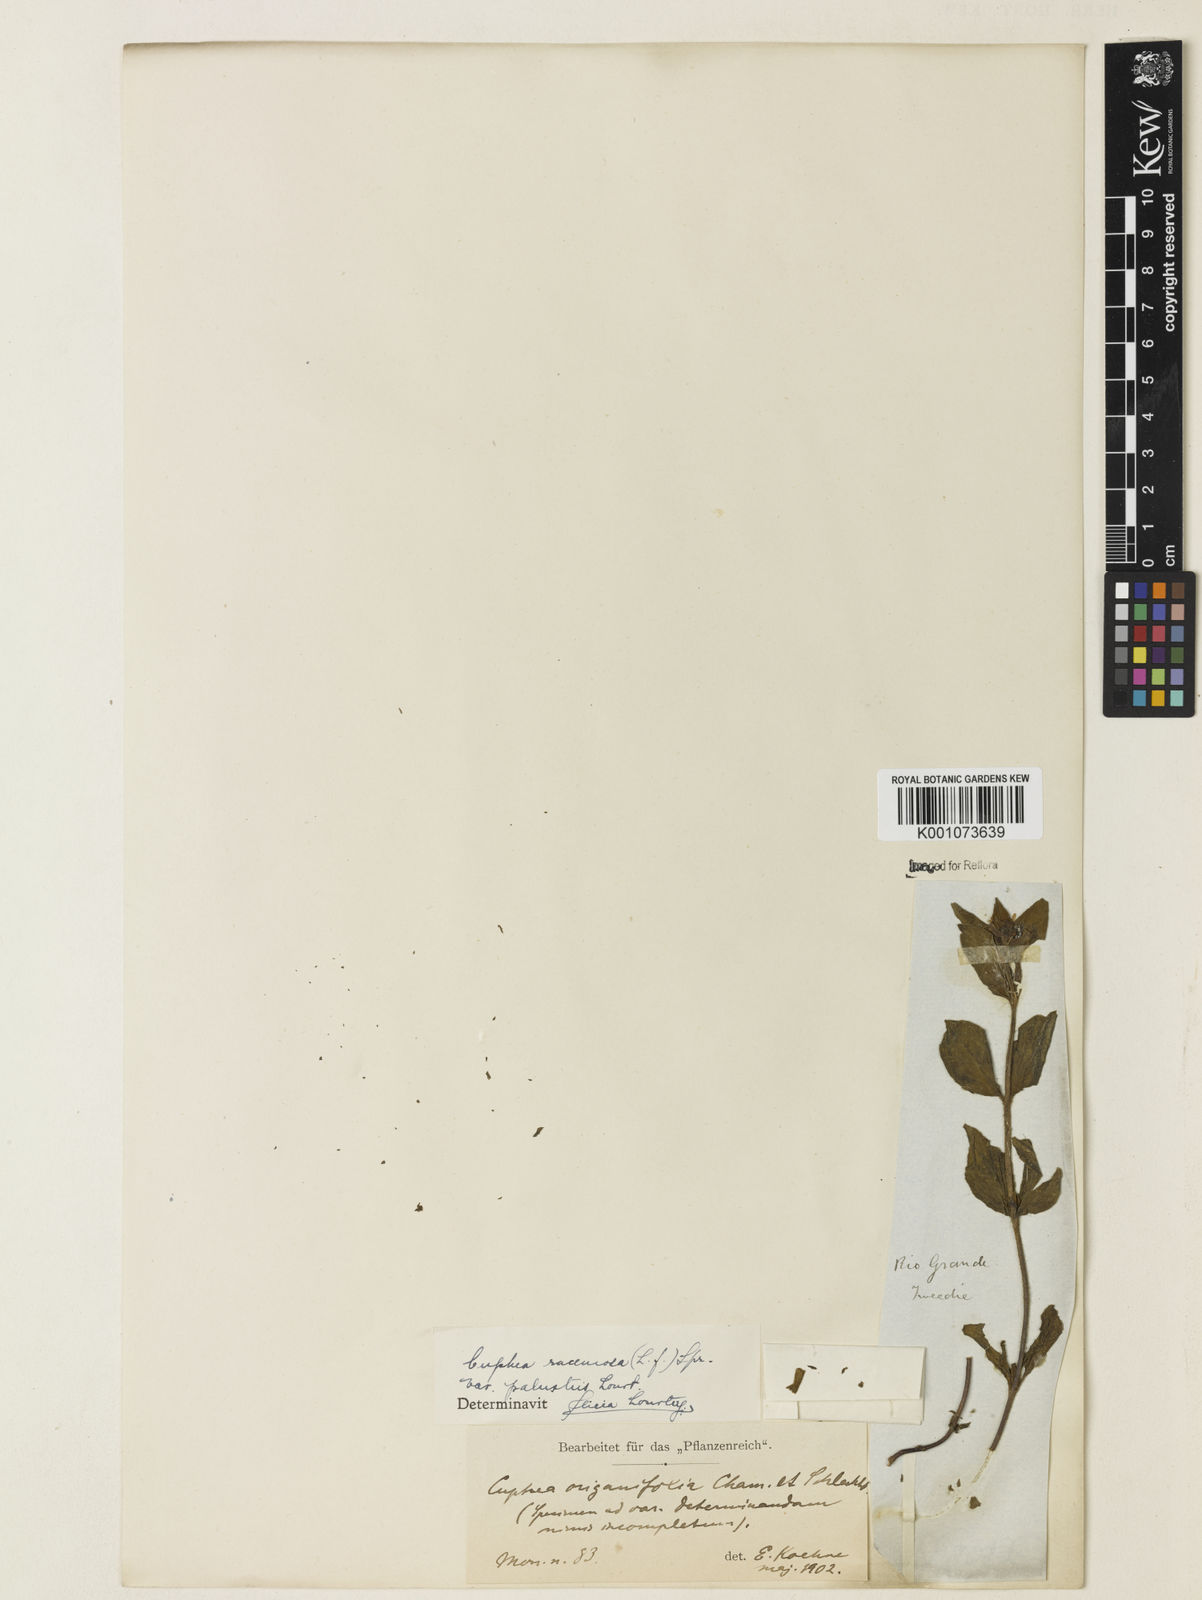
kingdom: Plantae
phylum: Tracheophyta
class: Magnoliopsida
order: Myrtales
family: Lythraceae
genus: Cuphea
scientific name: Cuphea racemosa
